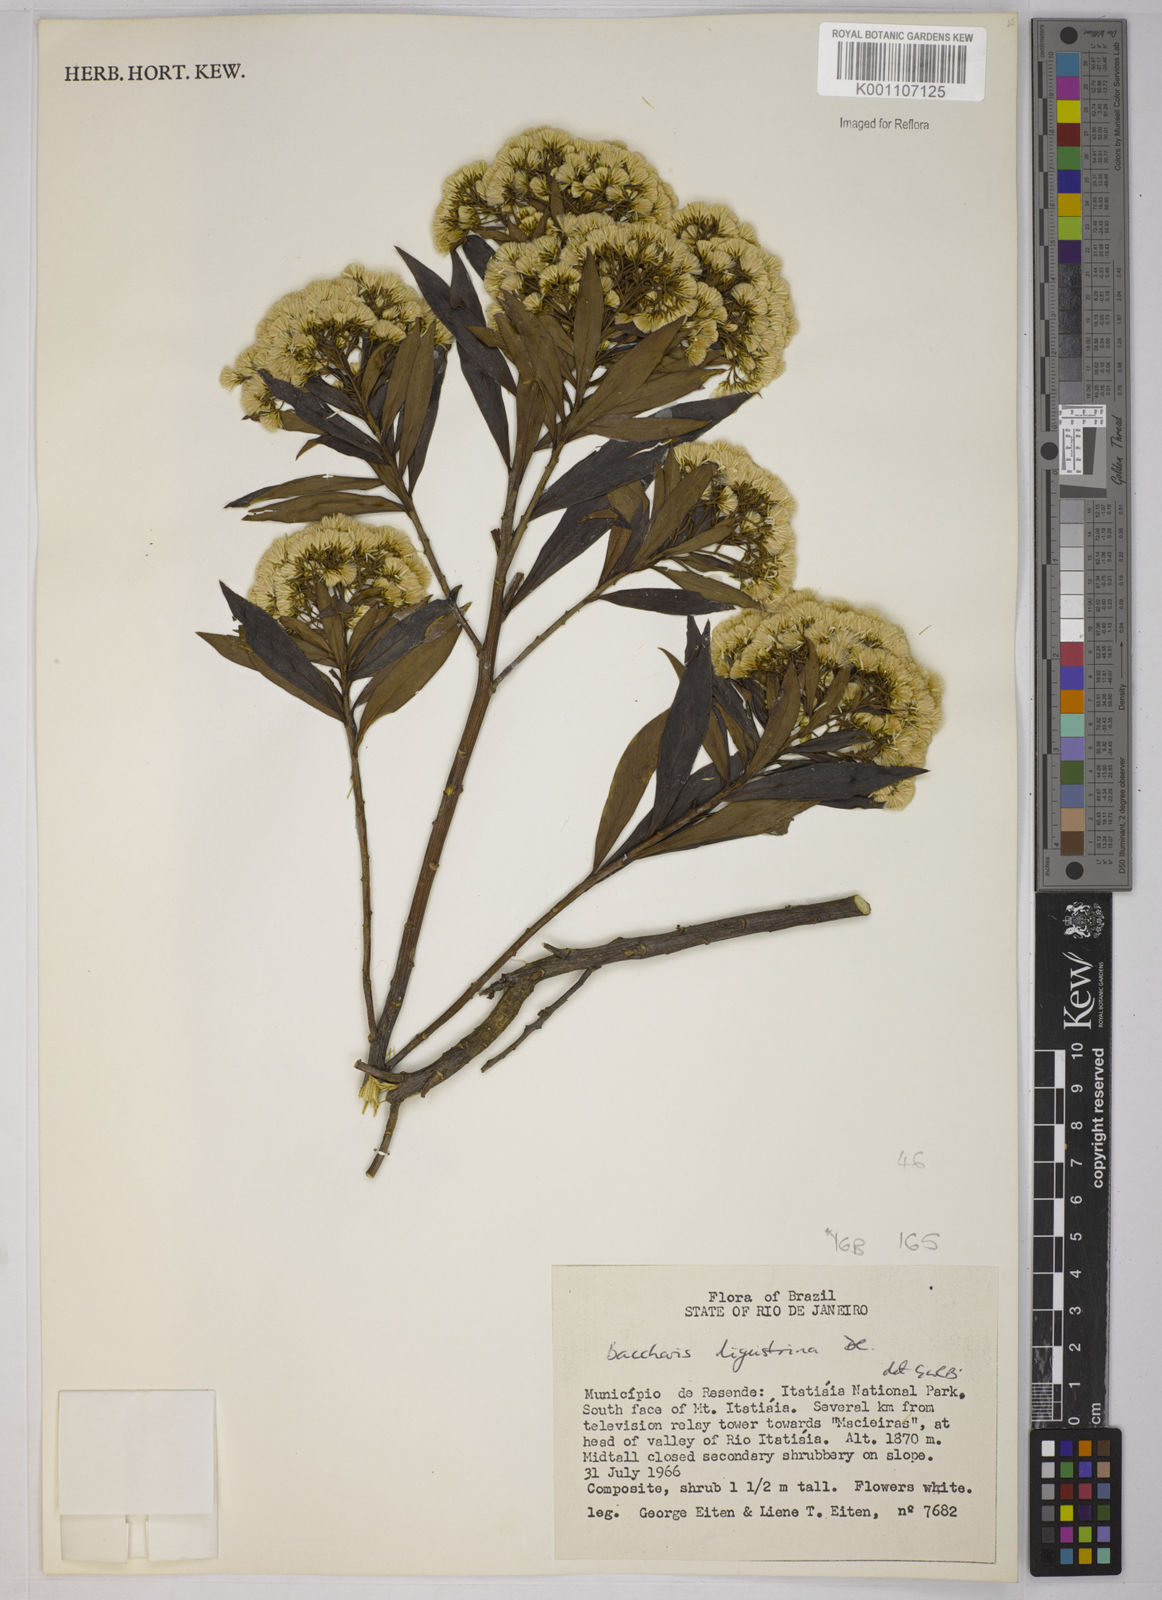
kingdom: Plantae
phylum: Tracheophyta
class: Magnoliopsida
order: Asterales
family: Asteraceae
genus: Baccharis
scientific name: Baccharis grandimucronata
